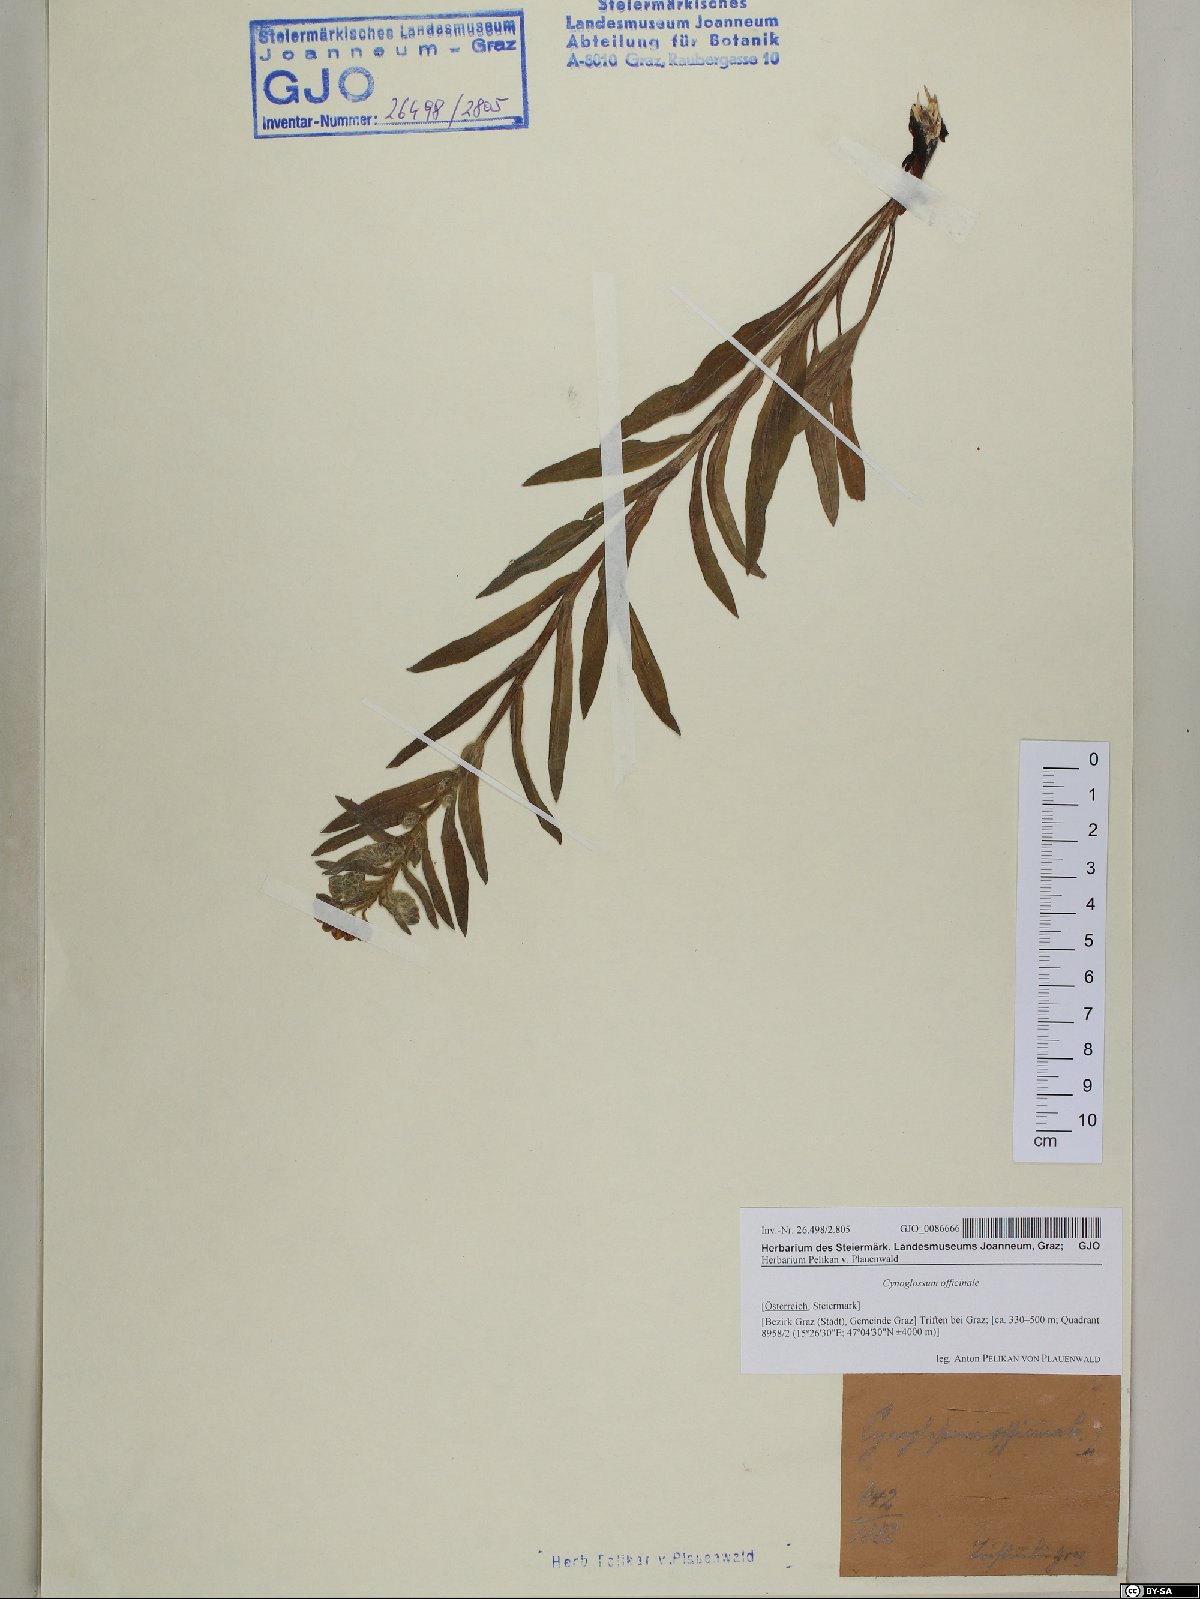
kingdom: Plantae
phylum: Tracheophyta
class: Magnoliopsida
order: Boraginales
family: Boraginaceae
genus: Cynoglossum
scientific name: Cynoglossum officinale
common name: Hound's-tongue
